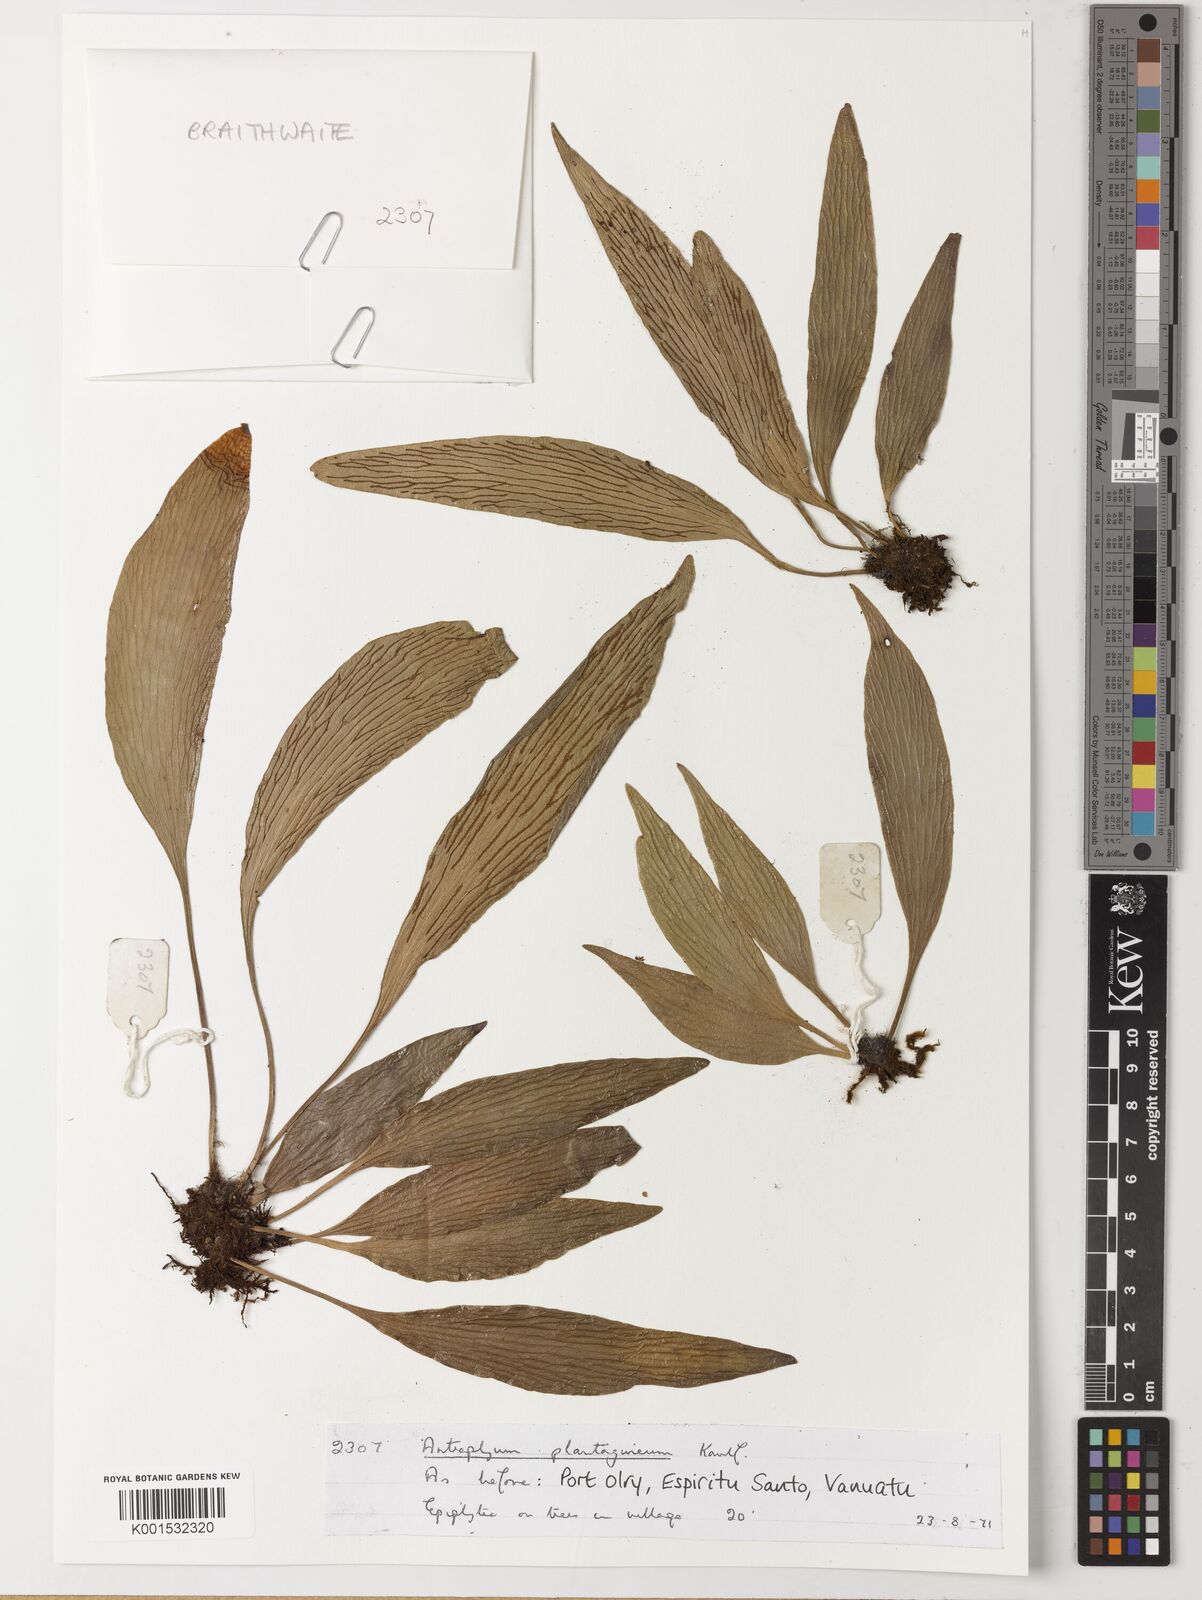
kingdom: Plantae
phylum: Tracheophyta
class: Polypodiopsida
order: Polypodiales
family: Pteridaceae
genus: Antrophyum
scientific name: Antrophyum plantagineum
